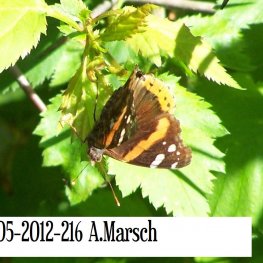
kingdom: Animalia
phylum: Arthropoda
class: Insecta
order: Lepidoptera
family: Nymphalidae
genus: Vanessa
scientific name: Vanessa atalanta
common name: Red Admiral
